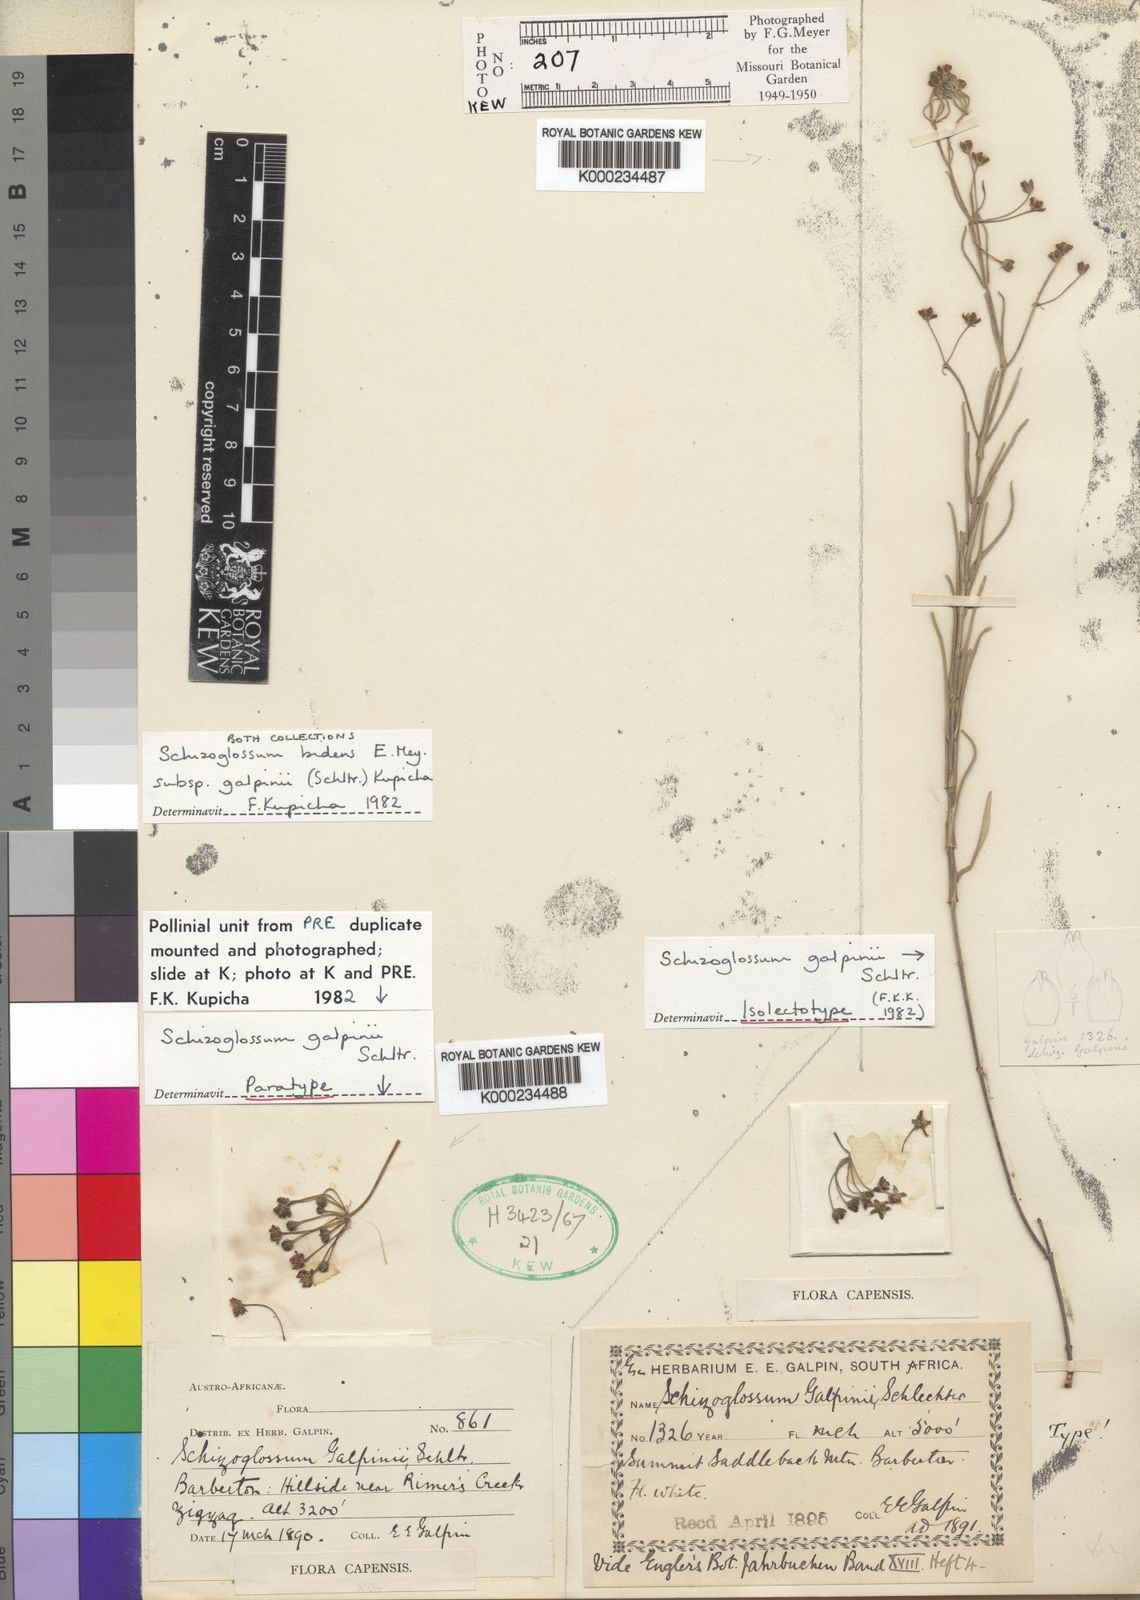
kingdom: Plantae
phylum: Tracheophyta
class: Magnoliopsida
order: Gentianales
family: Apocynaceae
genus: Schizoglossum
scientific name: Schizoglossum bidens
